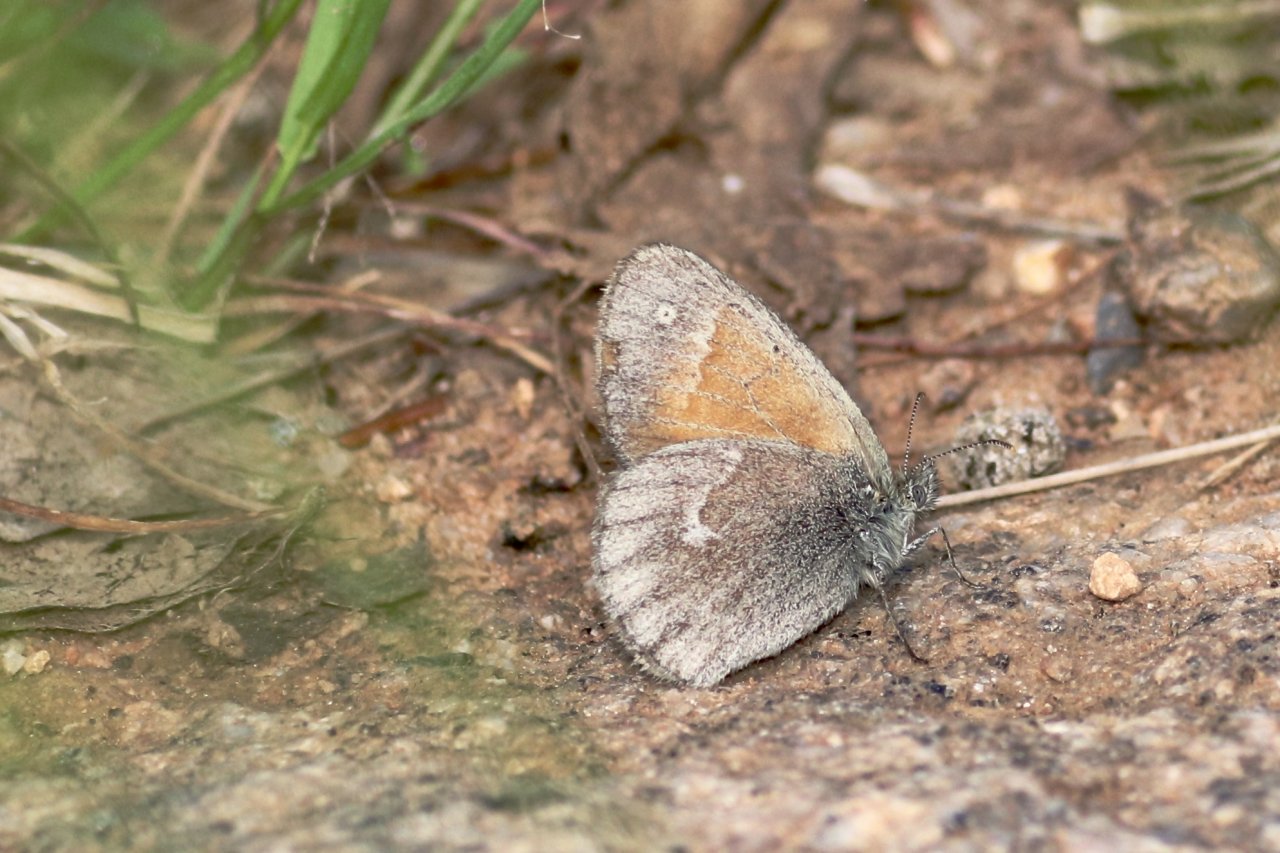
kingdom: Animalia
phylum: Arthropoda
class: Insecta
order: Lepidoptera
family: Nymphalidae
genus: Coenonympha
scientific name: Coenonympha tullia
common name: Large Heath
